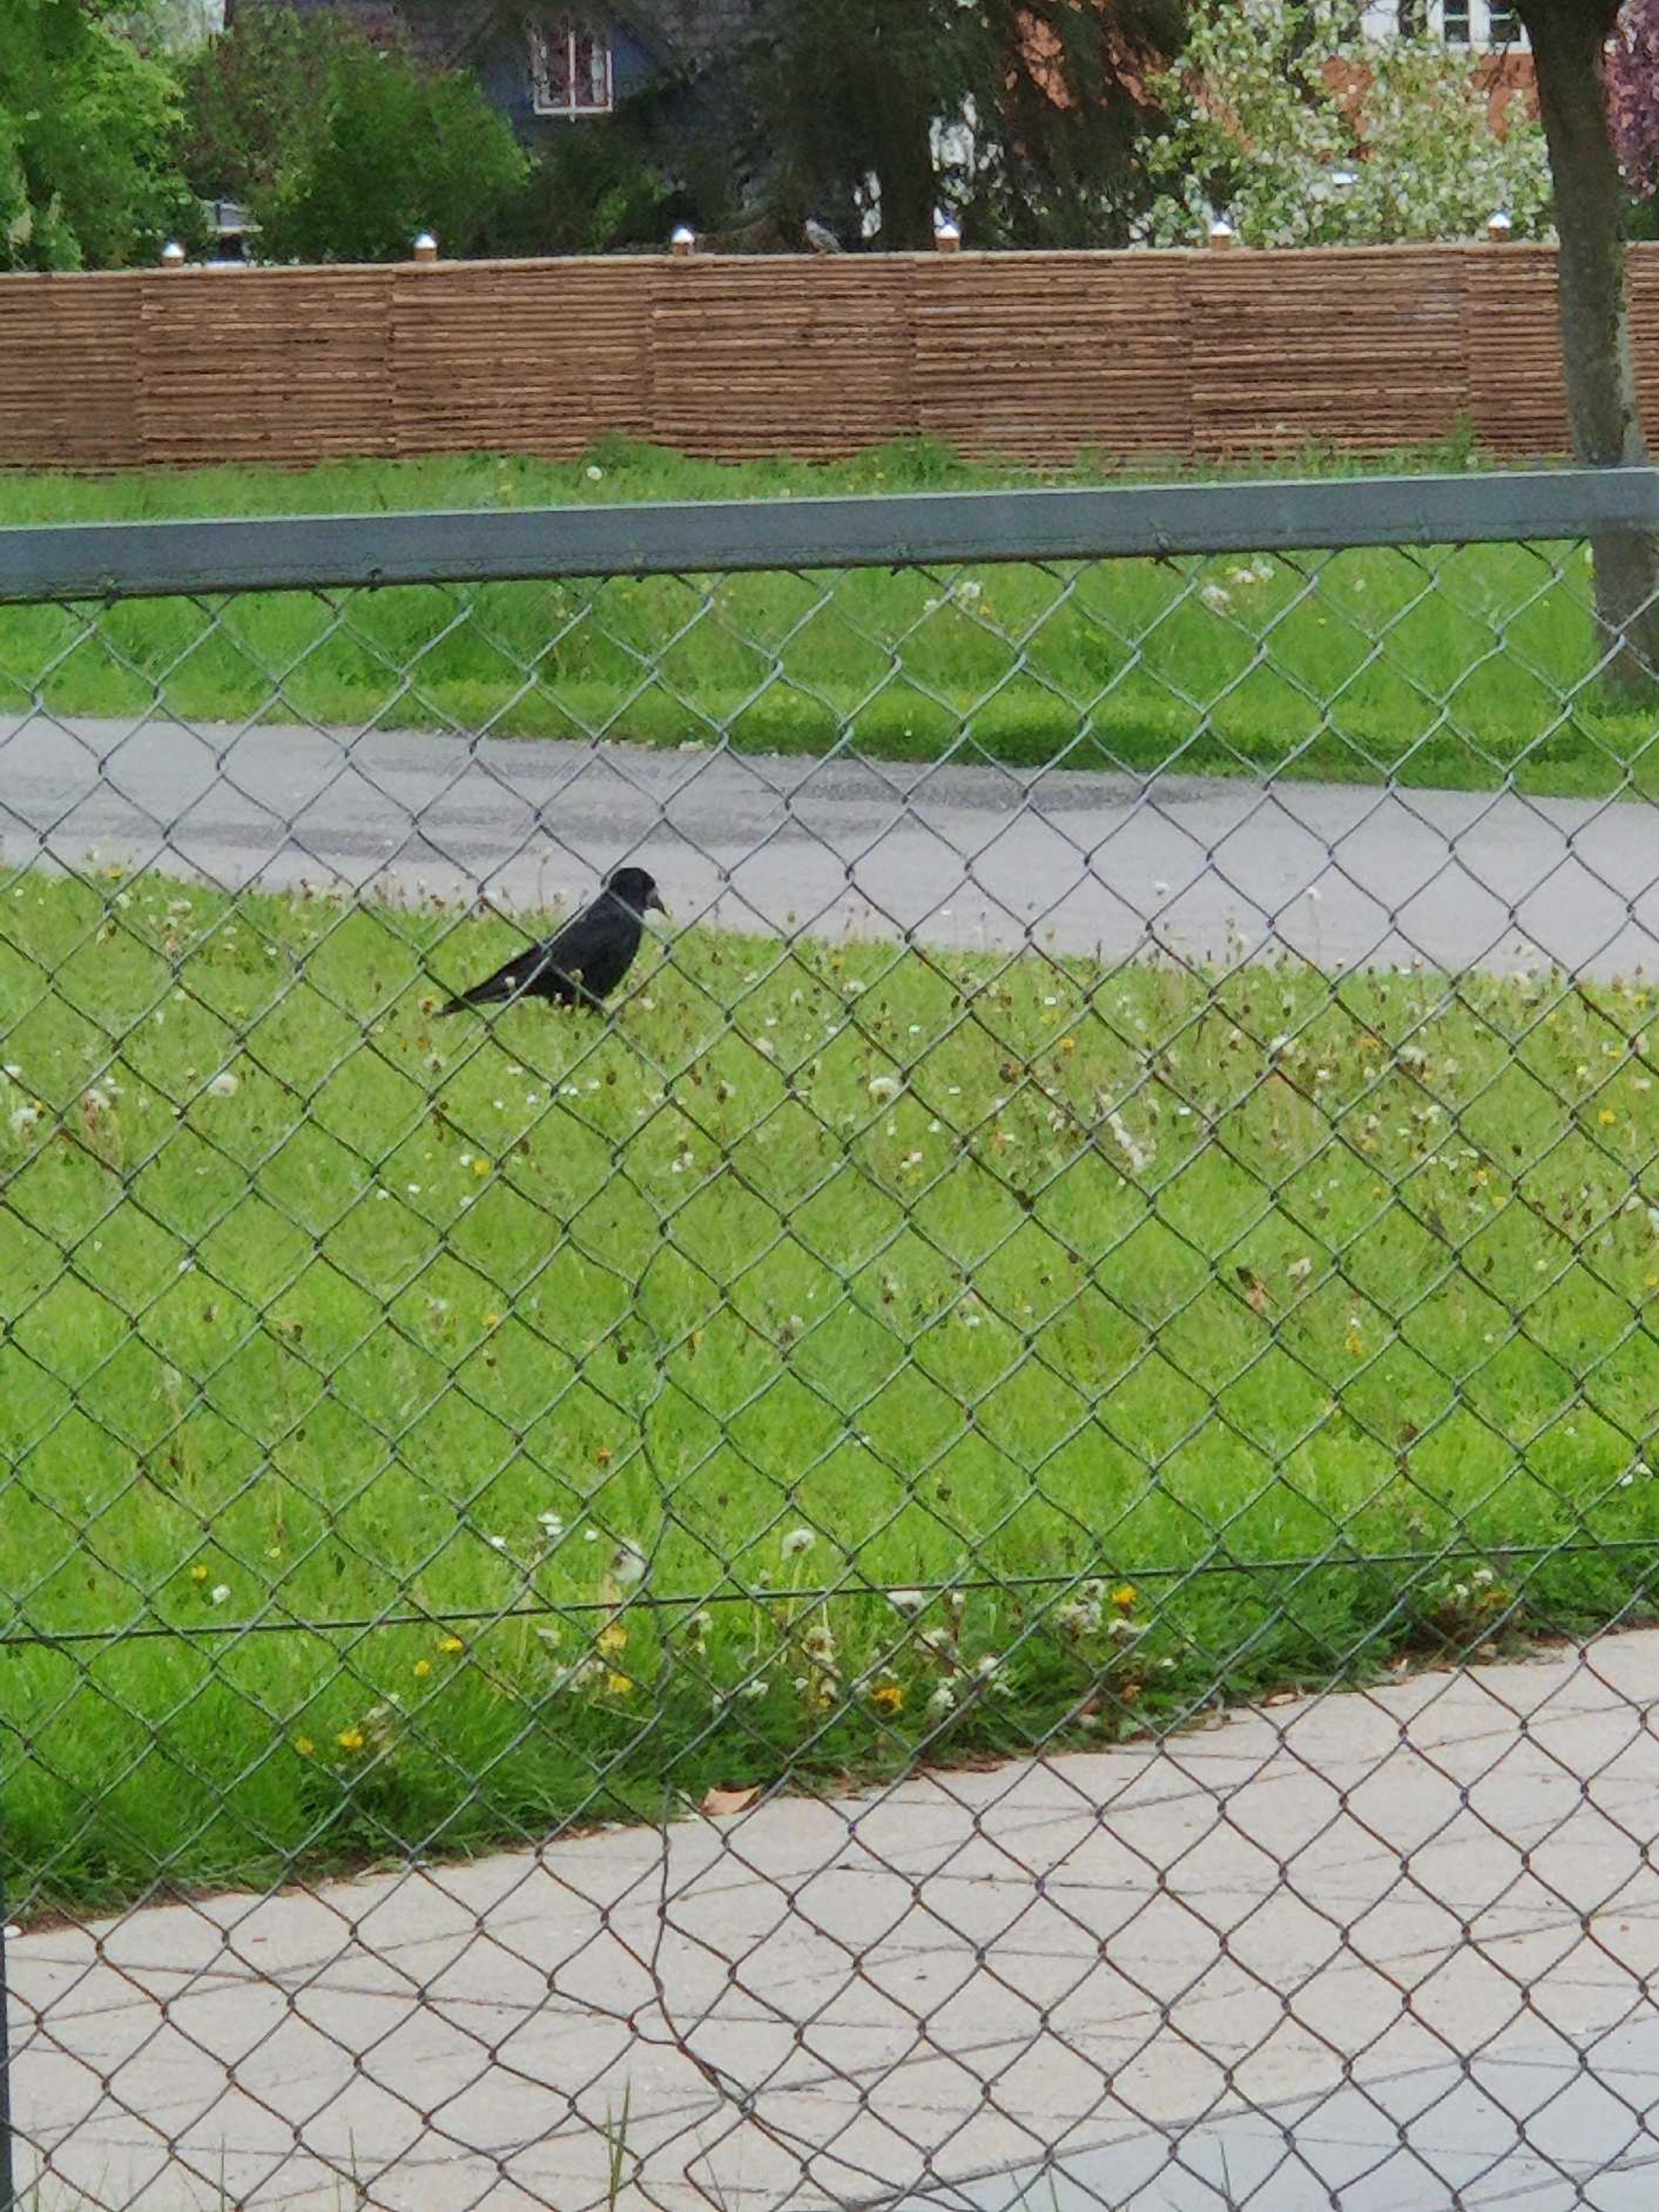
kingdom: Animalia
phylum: Chordata
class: Aves
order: Passeriformes
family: Corvidae
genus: Corvus
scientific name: Corvus frugilegus
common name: Råge
